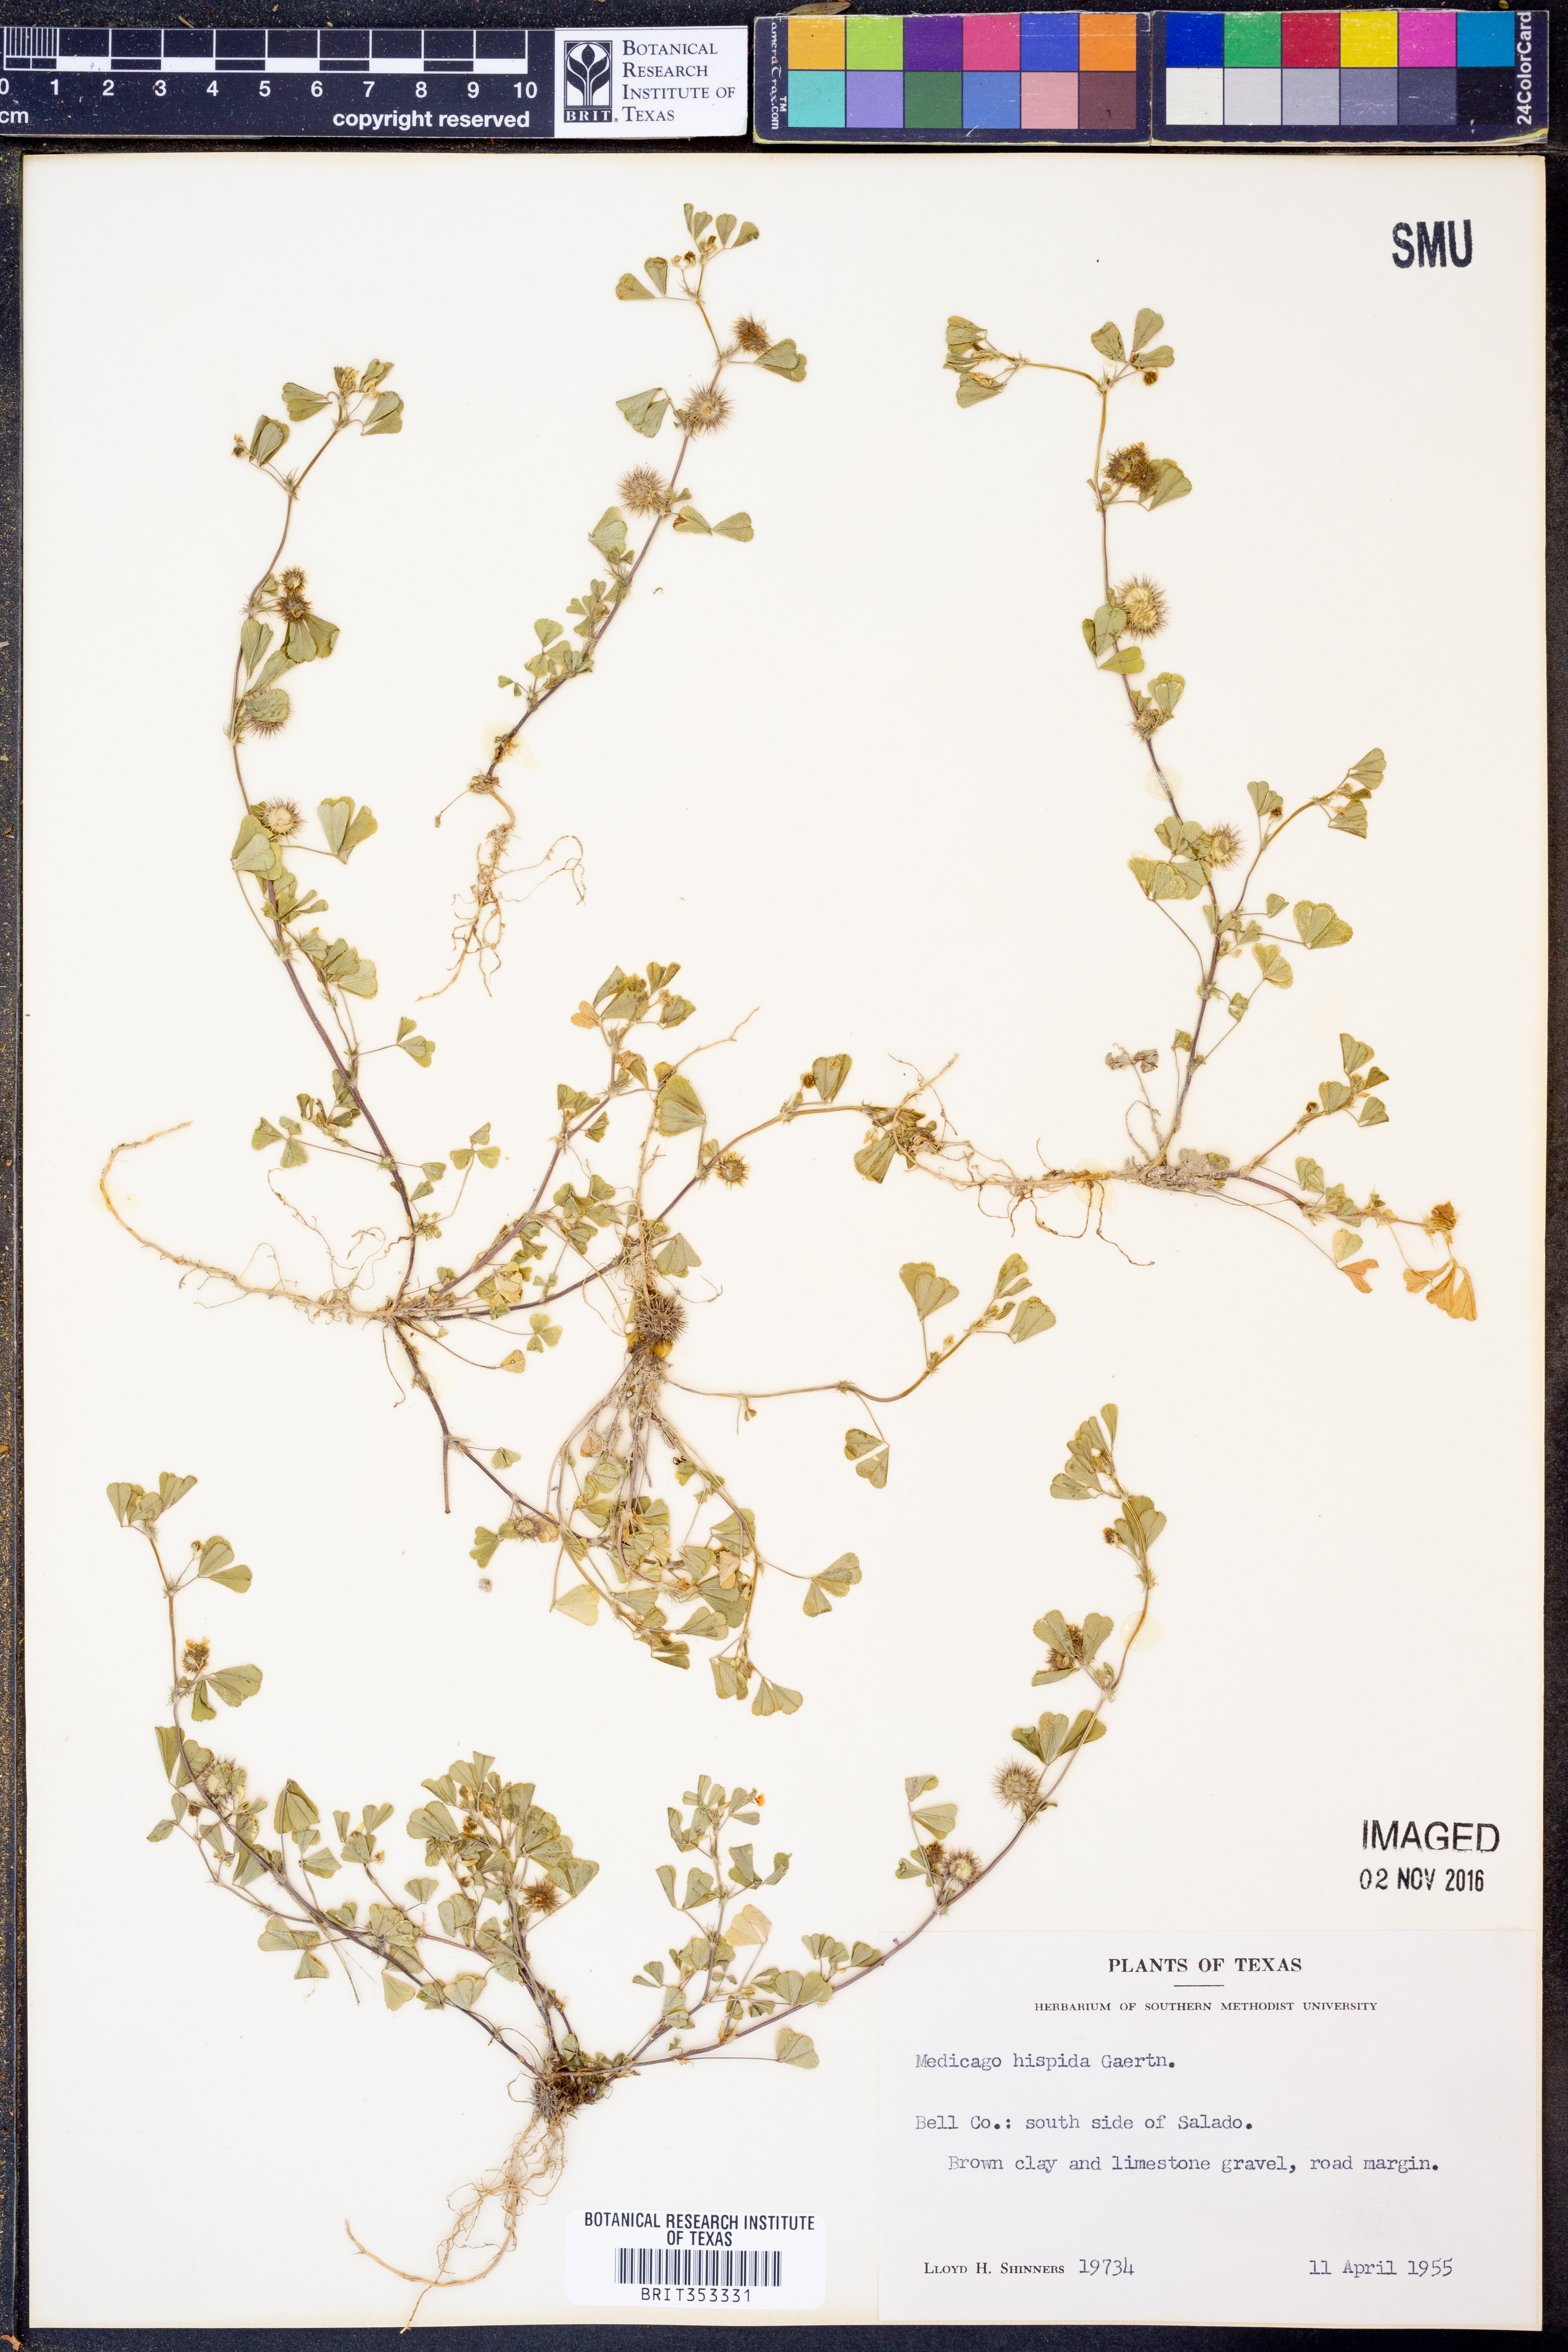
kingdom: Plantae
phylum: Tracheophyta
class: Magnoliopsida
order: Fabales
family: Fabaceae
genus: Medicago
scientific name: Medicago polymorpha
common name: Burclover
